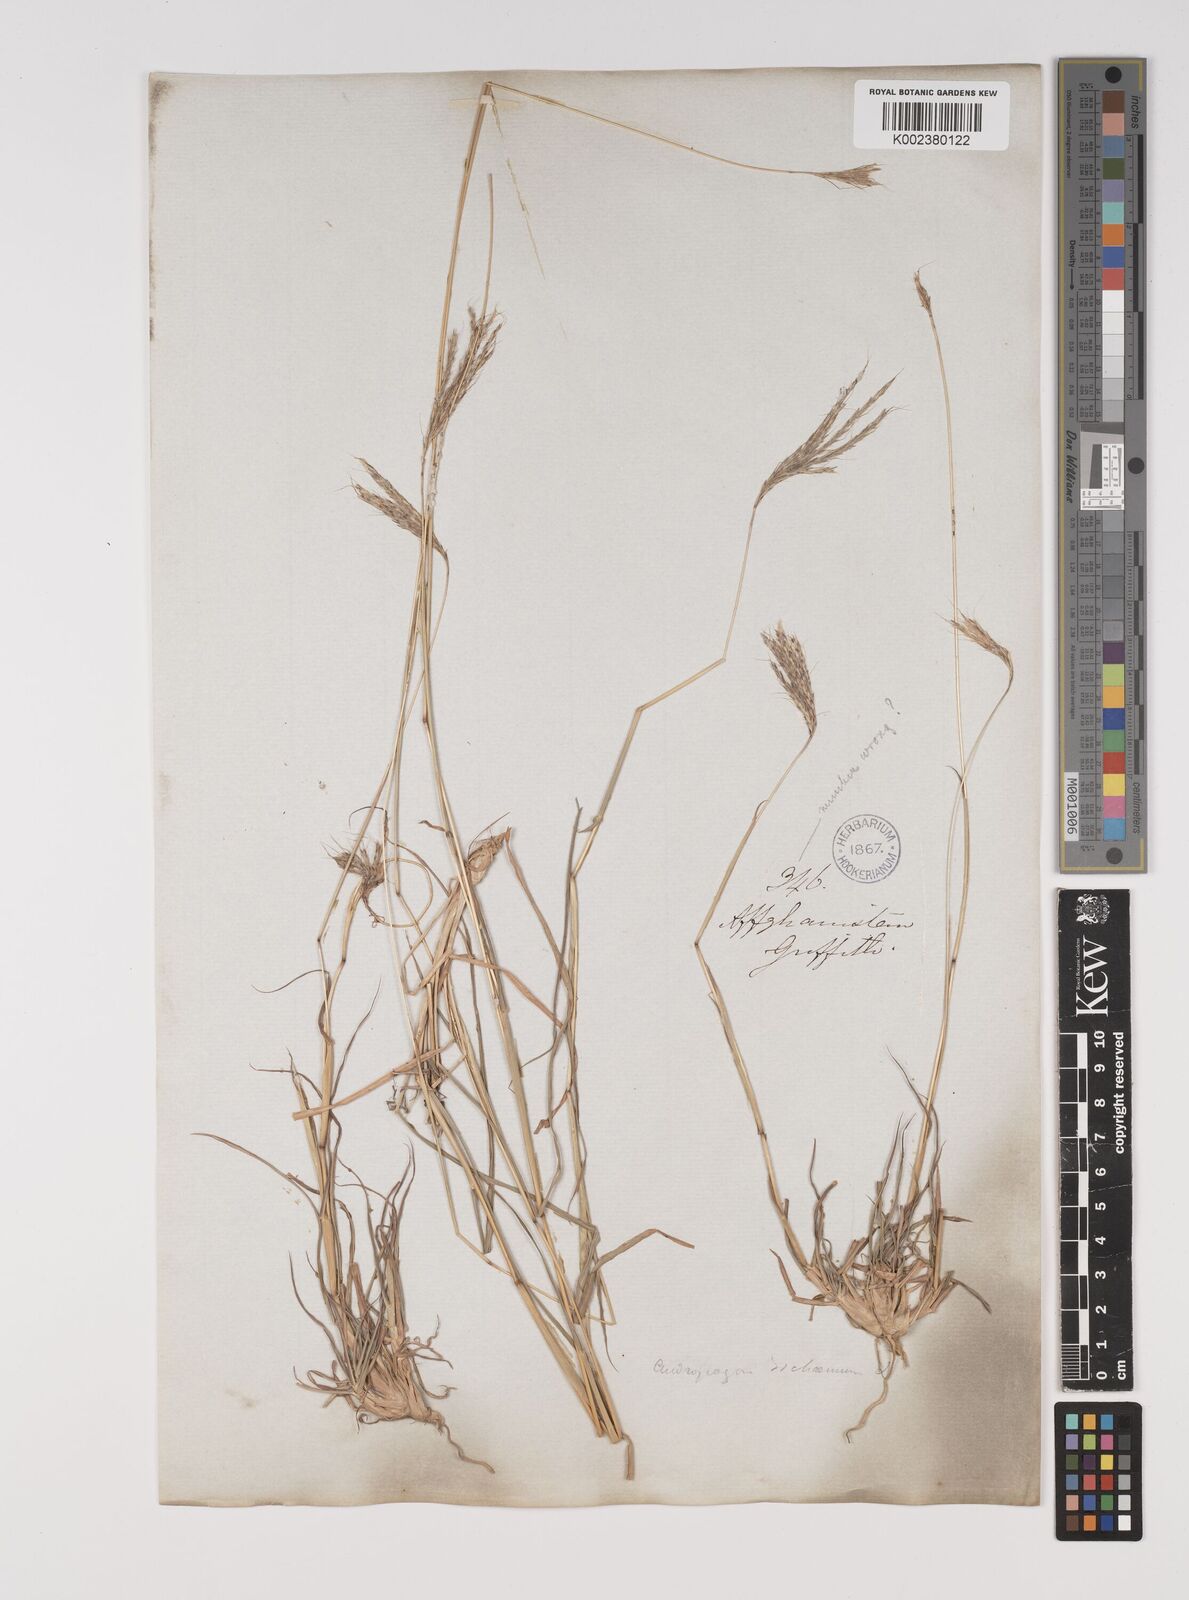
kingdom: Plantae
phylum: Tracheophyta
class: Liliopsida
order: Poales
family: Poaceae
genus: Bothriochloa
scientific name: Bothriochloa ischaemum
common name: Yellow bluestem
